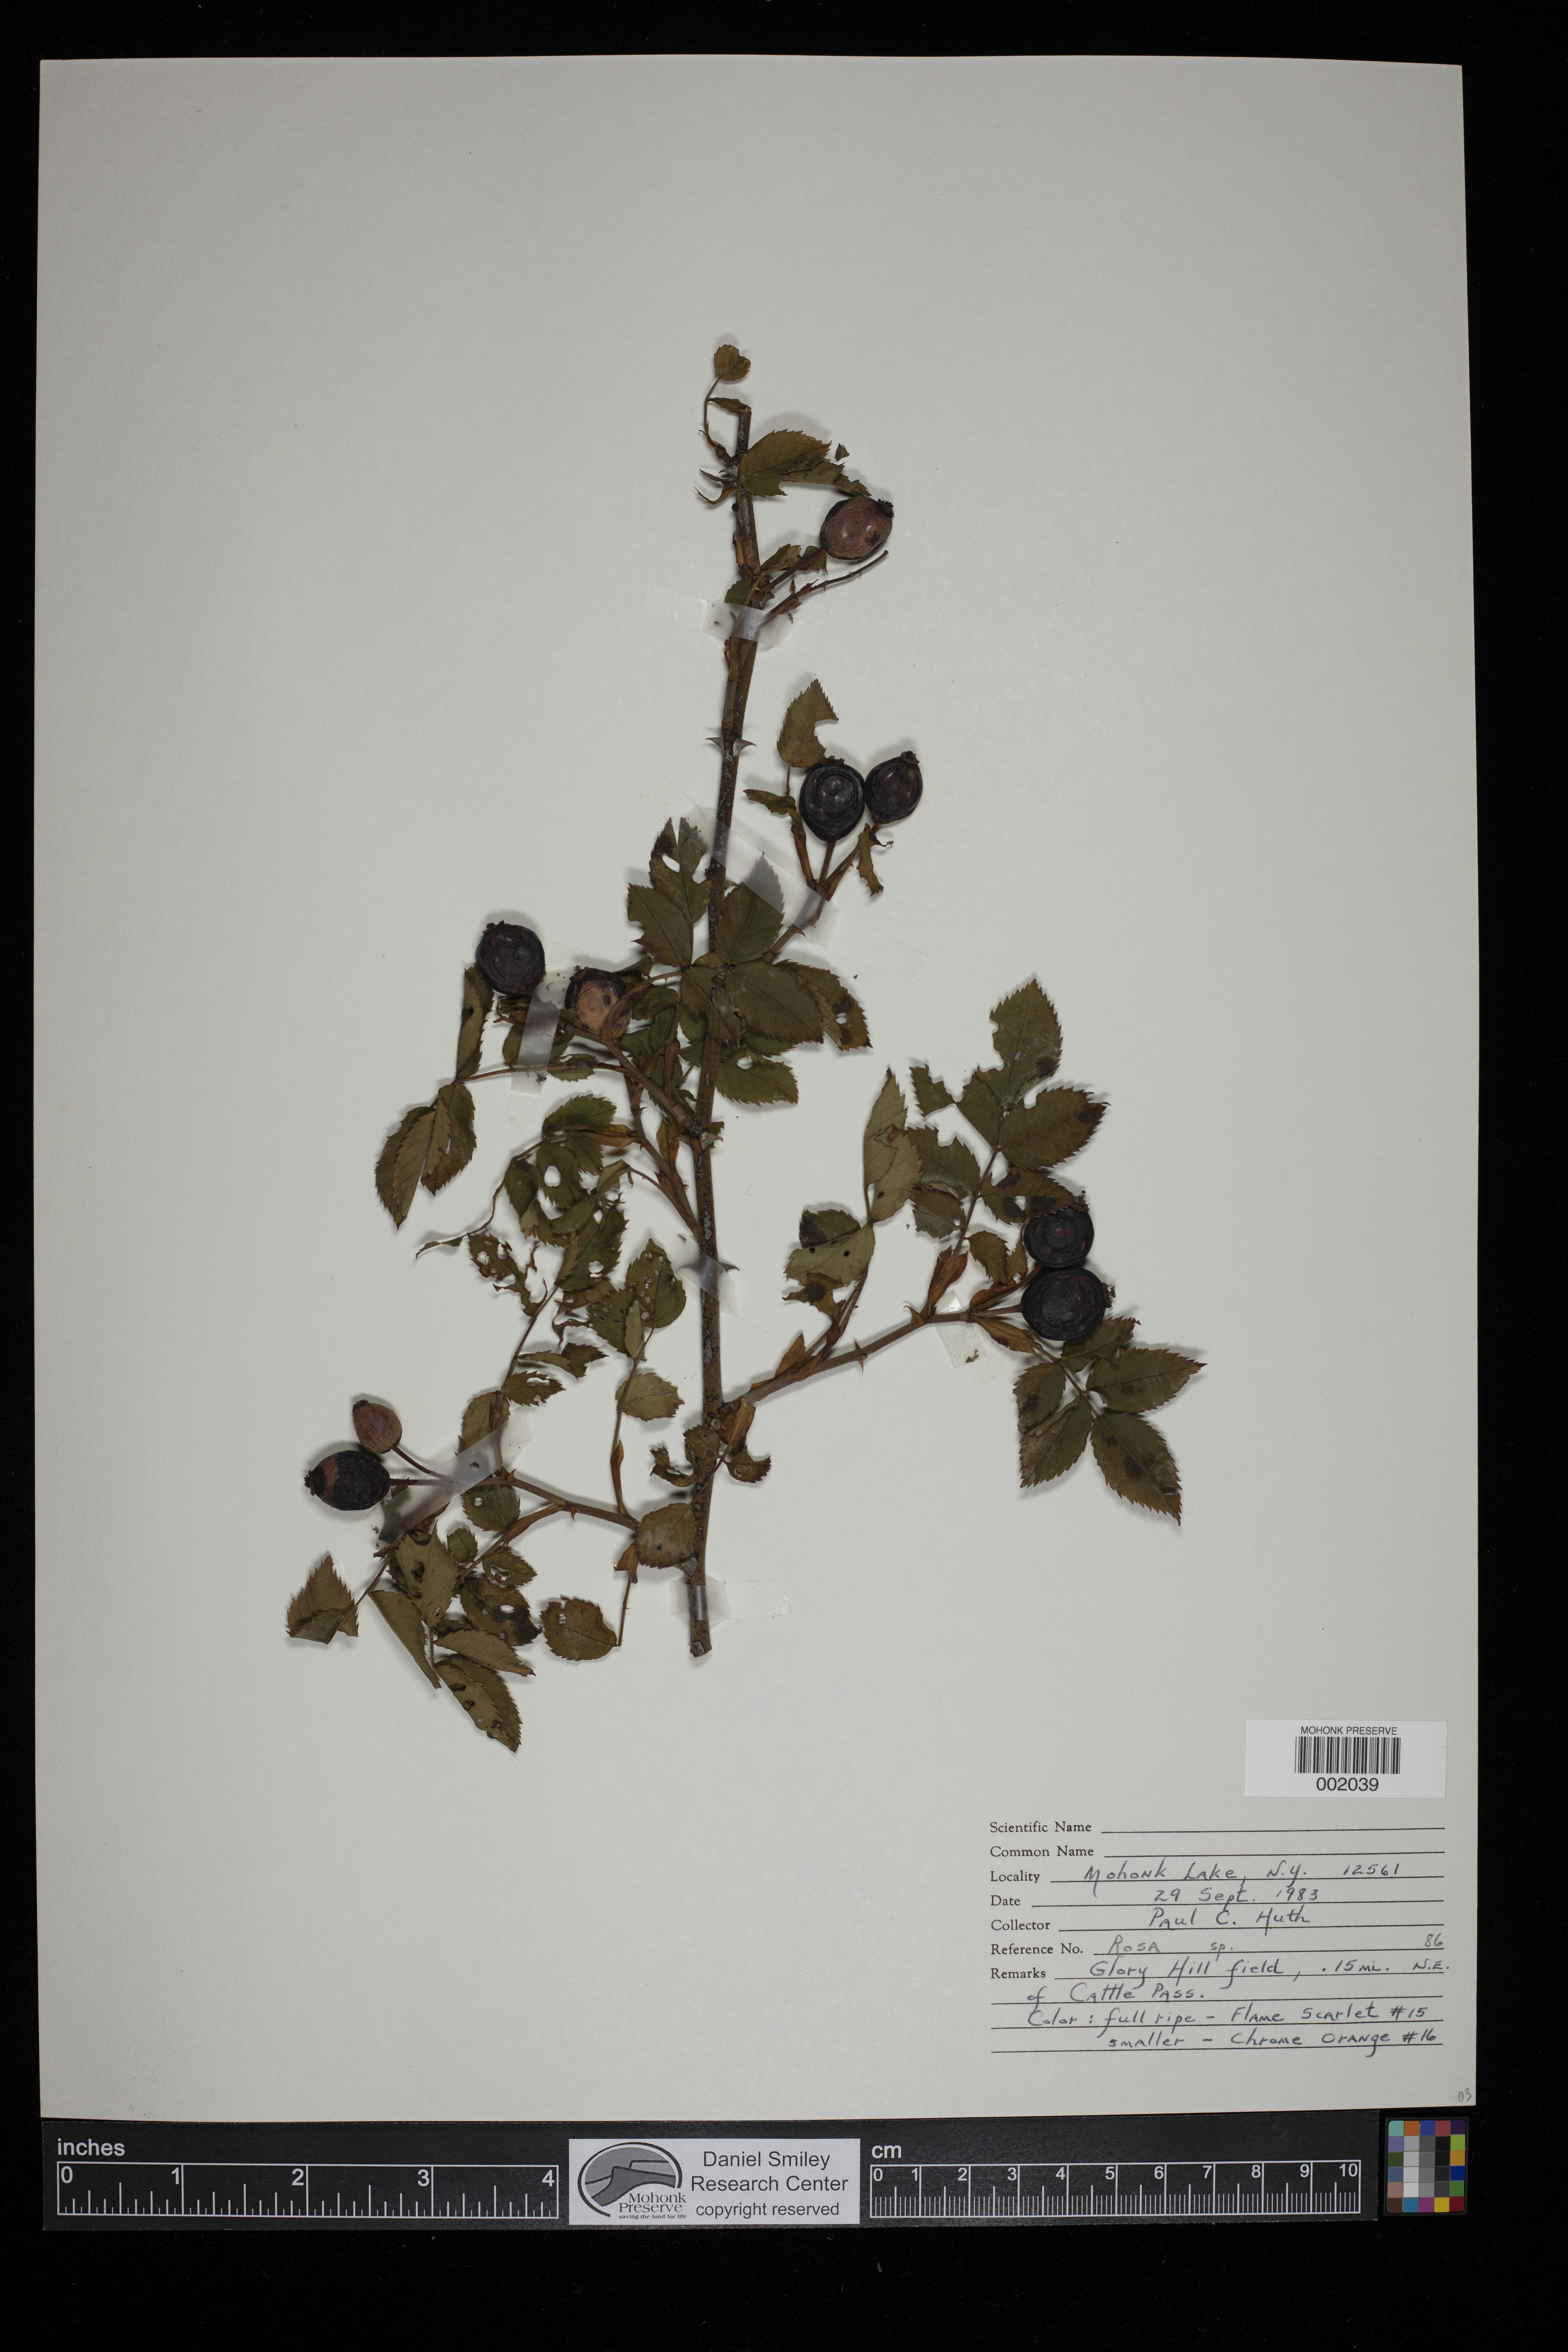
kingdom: Plantae
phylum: Tracheophyta
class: Magnoliopsida
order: Rosales
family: Rosaceae
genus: Rosa
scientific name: Rosa
